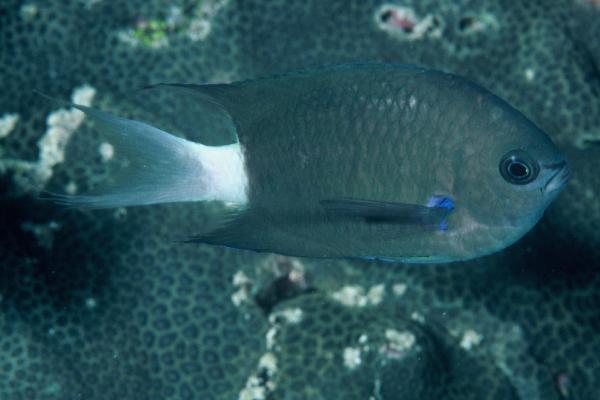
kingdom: Animalia
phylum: Chordata
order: Perciformes
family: Pomacentridae
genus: Chromis
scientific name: Chromis caudalis
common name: Blue-axil chromis
